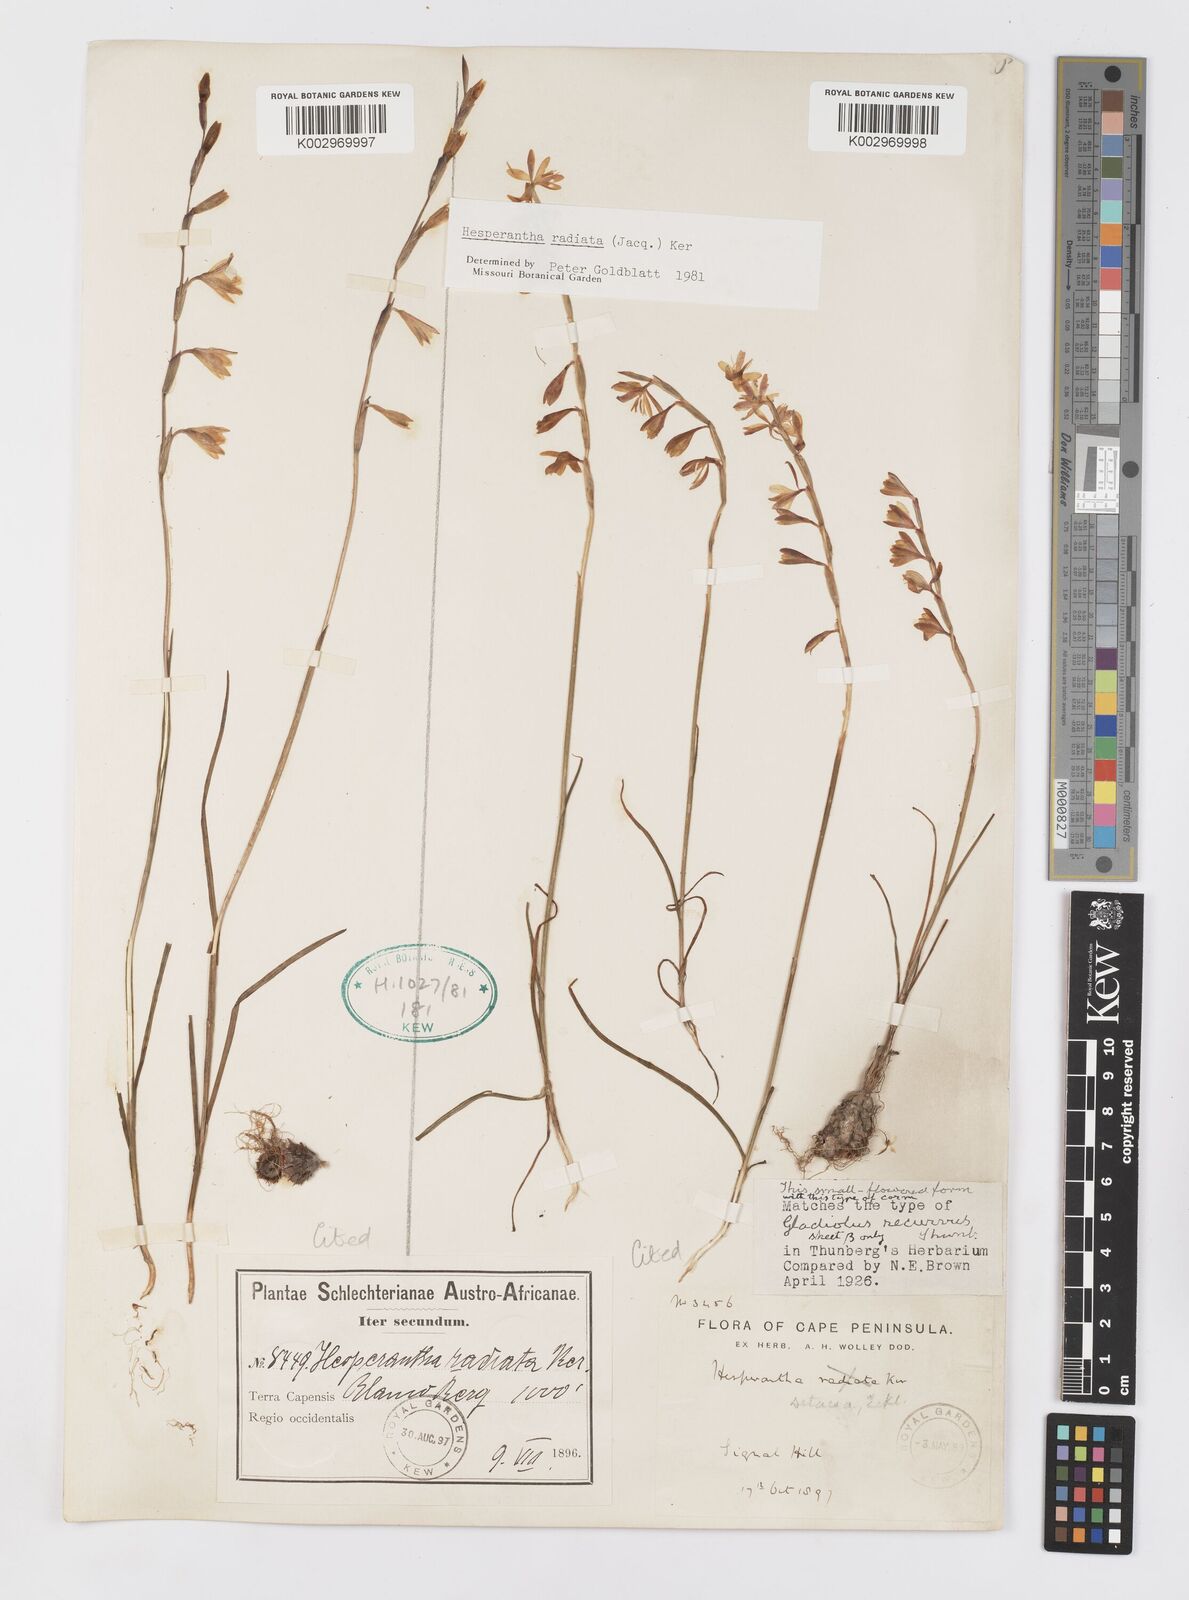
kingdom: Plantae
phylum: Tracheophyta
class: Liliopsida
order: Asparagales
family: Iridaceae
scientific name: Iridaceae
